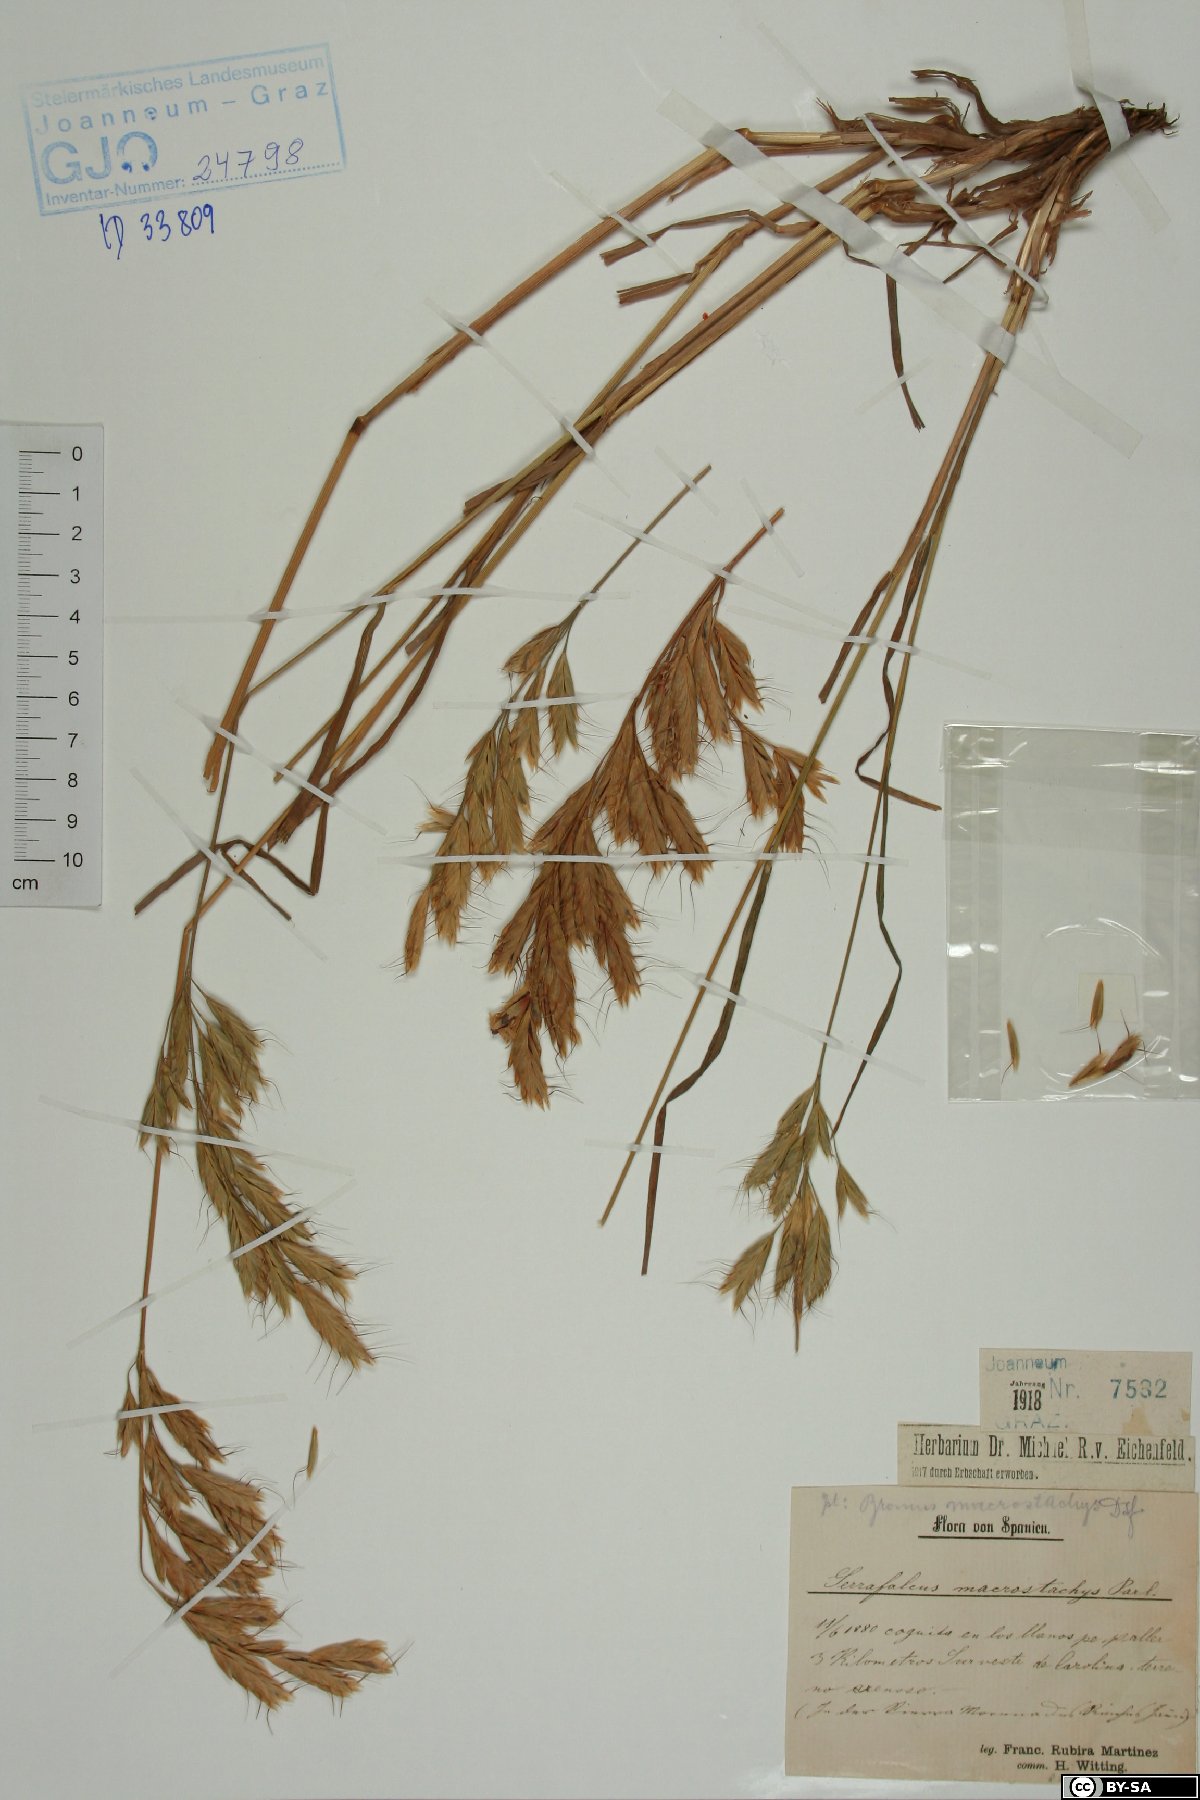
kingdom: Plantae
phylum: Tracheophyta
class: Liliopsida
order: Poales
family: Poaceae
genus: Bromus
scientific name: Bromus lanceolatus
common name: Mediterranean brome
